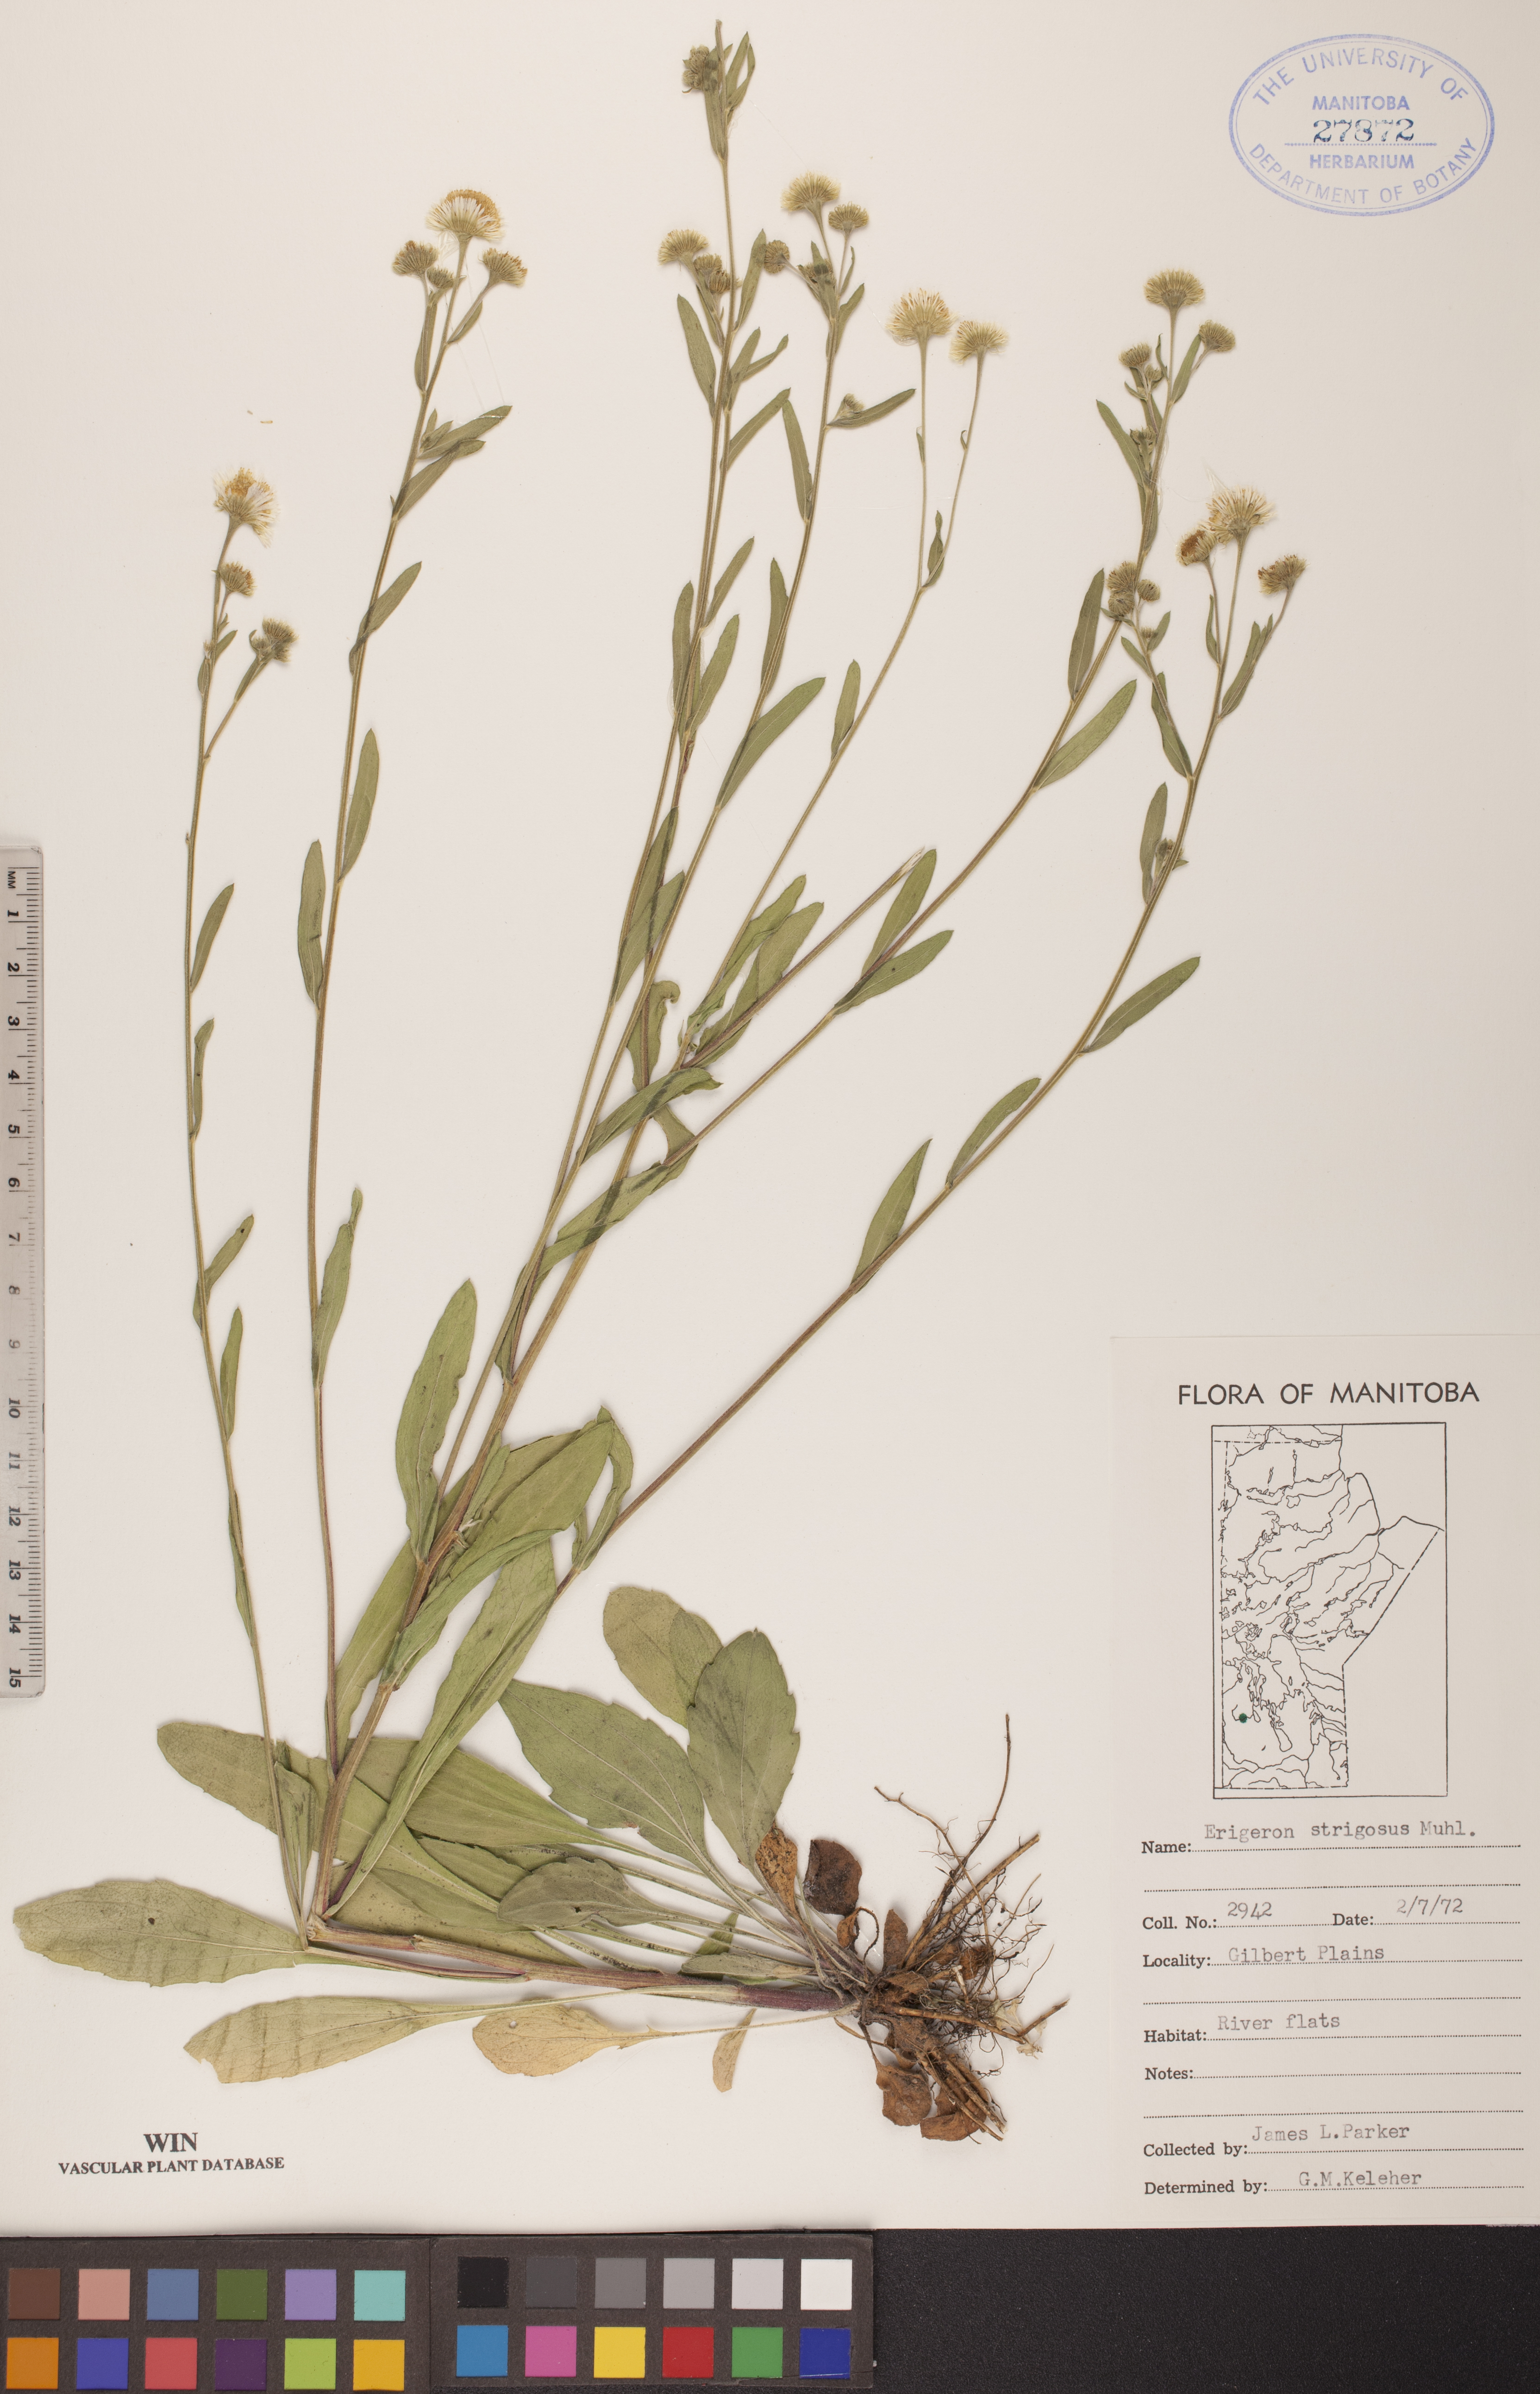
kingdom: Plantae
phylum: Tracheophyta
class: Magnoliopsida
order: Asterales
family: Asteraceae
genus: Erigeron
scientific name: Erigeron strigosus
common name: Common eastern fleabane
